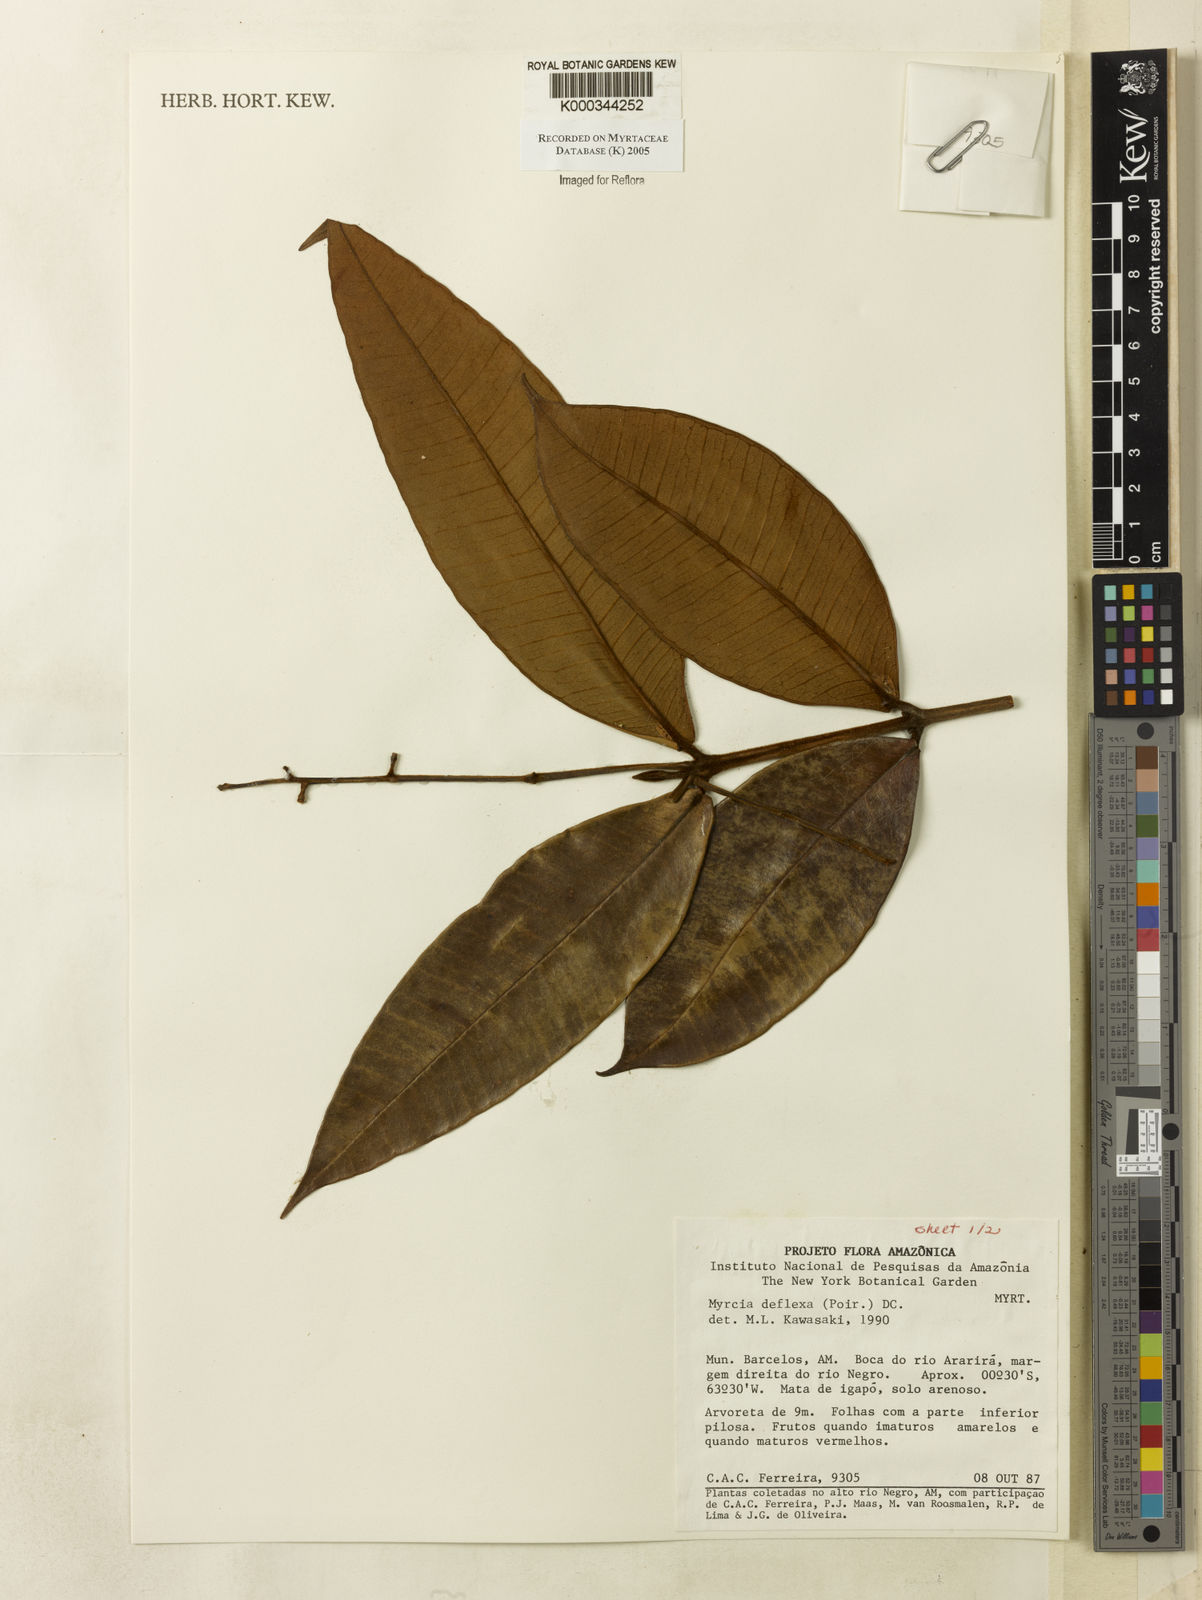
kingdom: Plantae
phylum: Tracheophyta
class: Magnoliopsida
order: Myrtales
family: Myrtaceae
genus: Myrcia
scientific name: Myrcia deflexa
